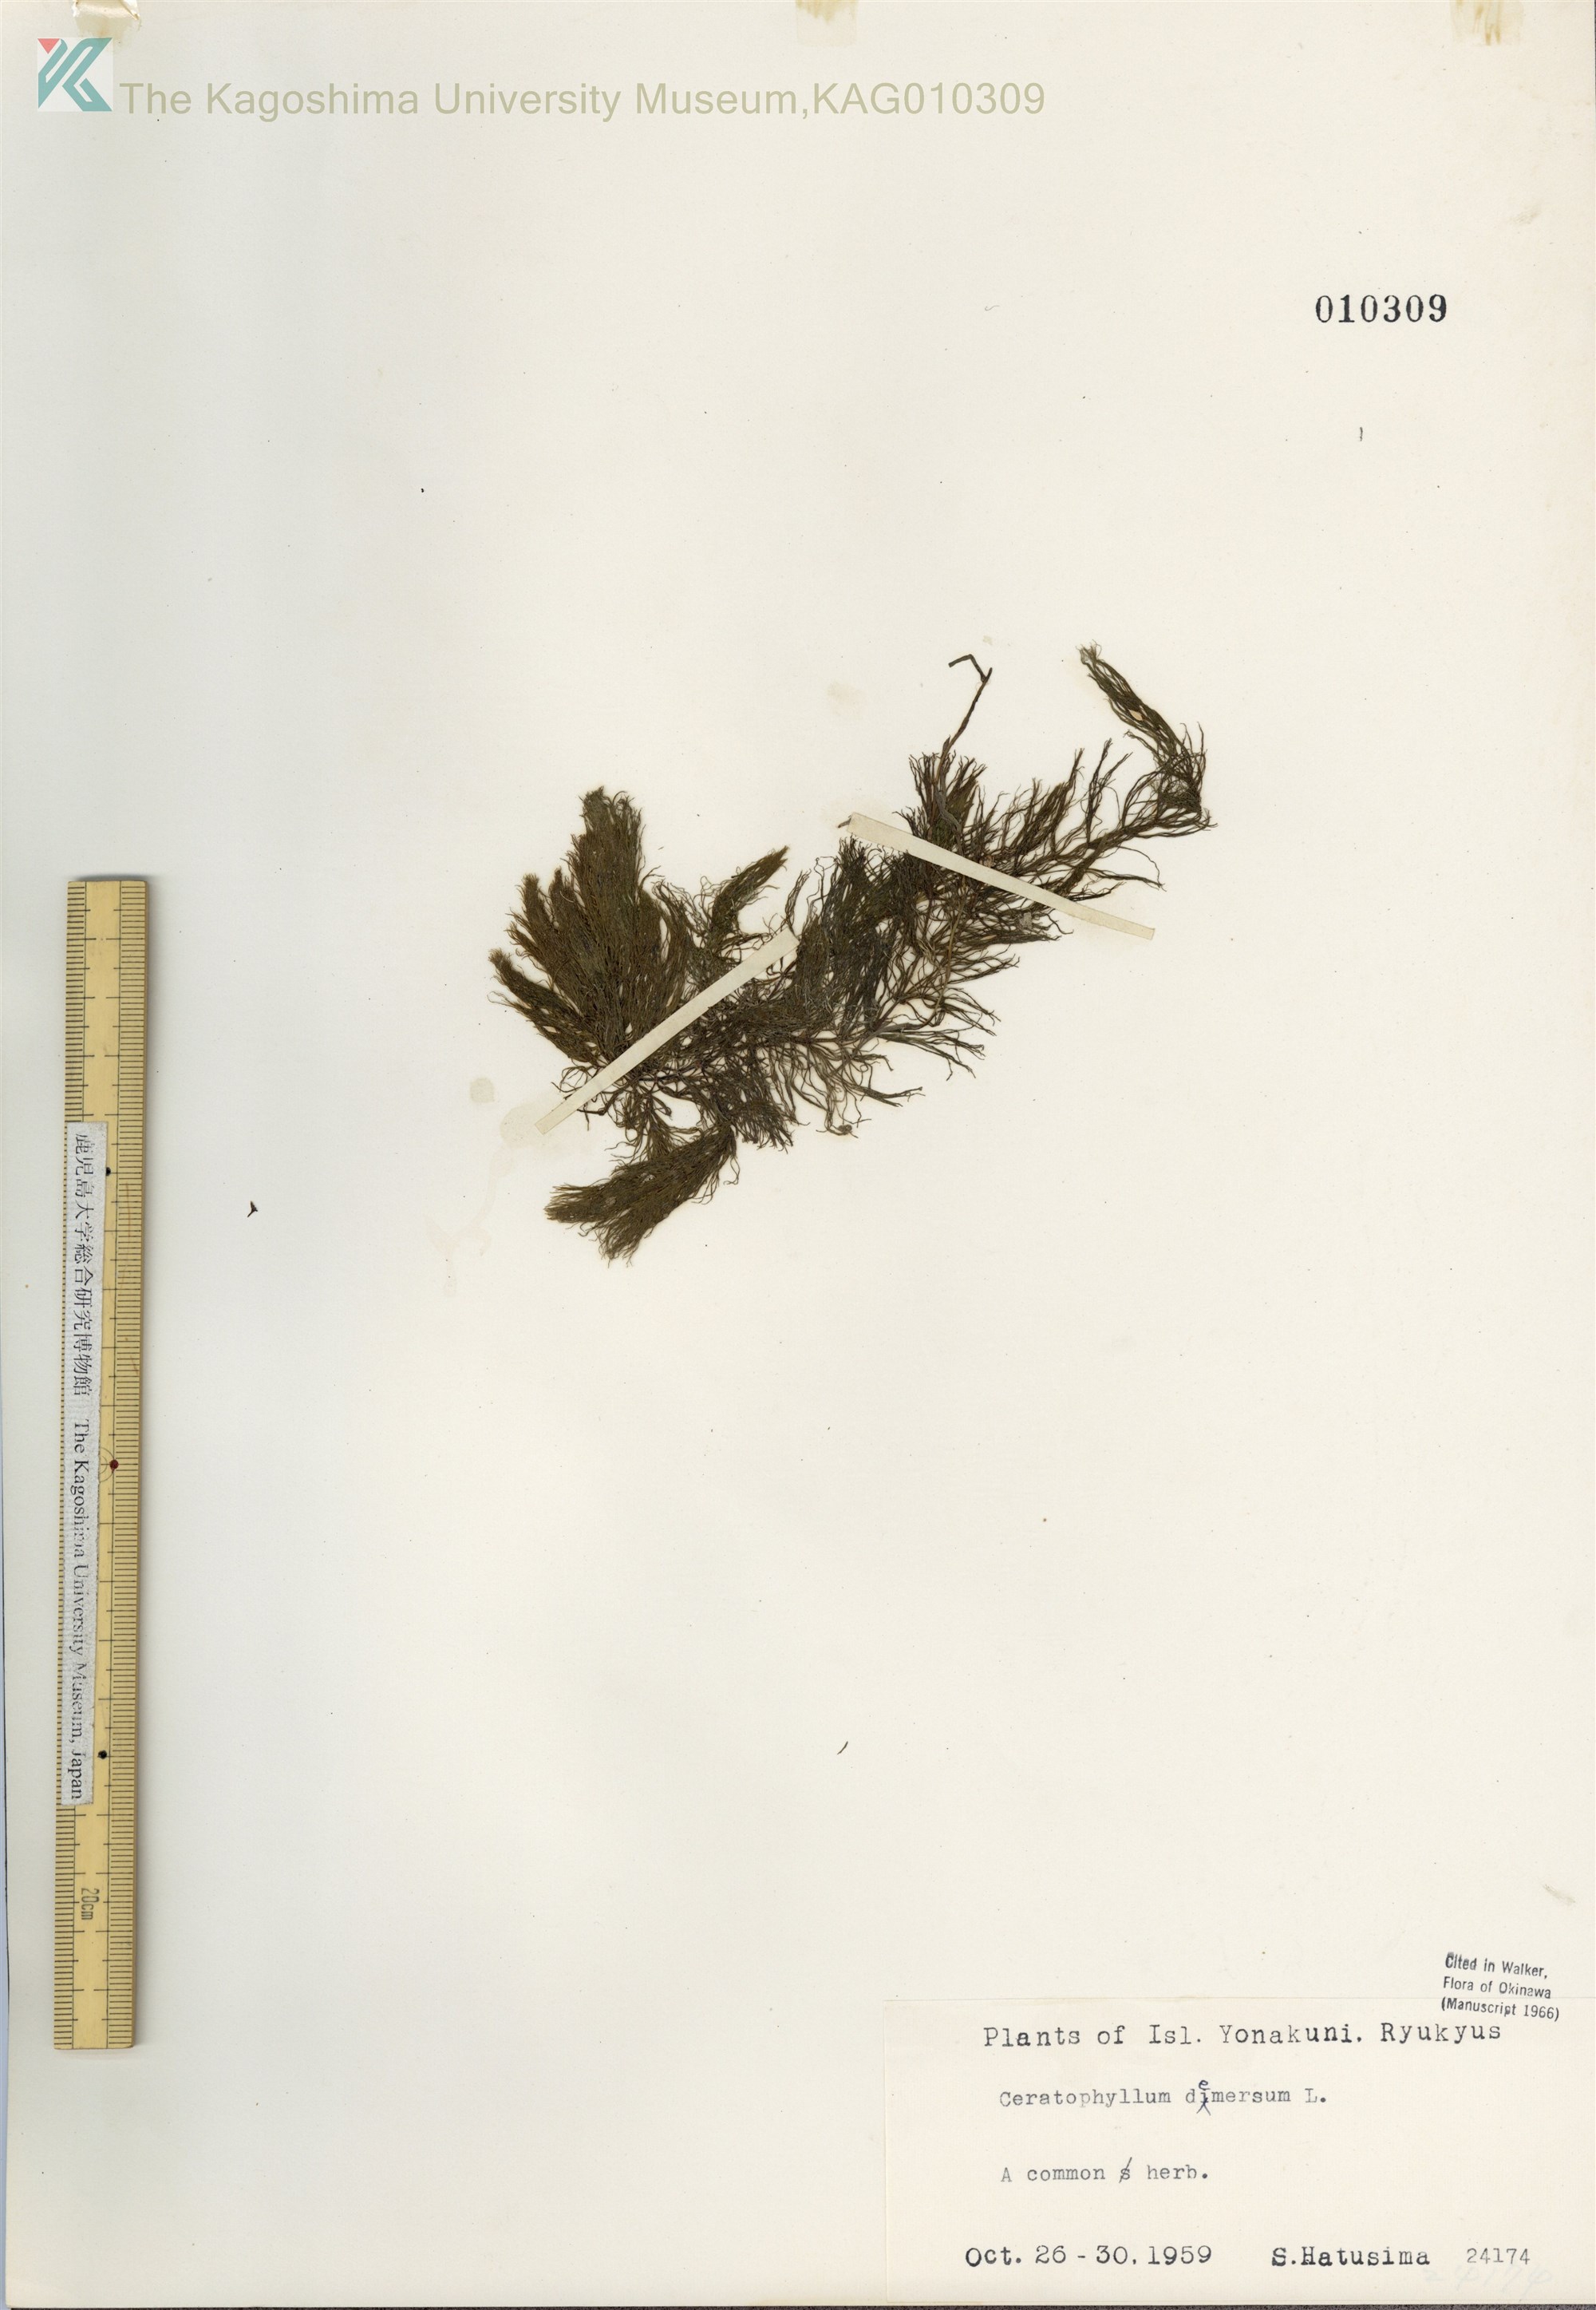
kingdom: Plantae
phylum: Tracheophyta
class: Magnoliopsida
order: Ceratophyllales
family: Ceratophyllaceae
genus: Ceratophyllum
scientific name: Ceratophyllum demersum
